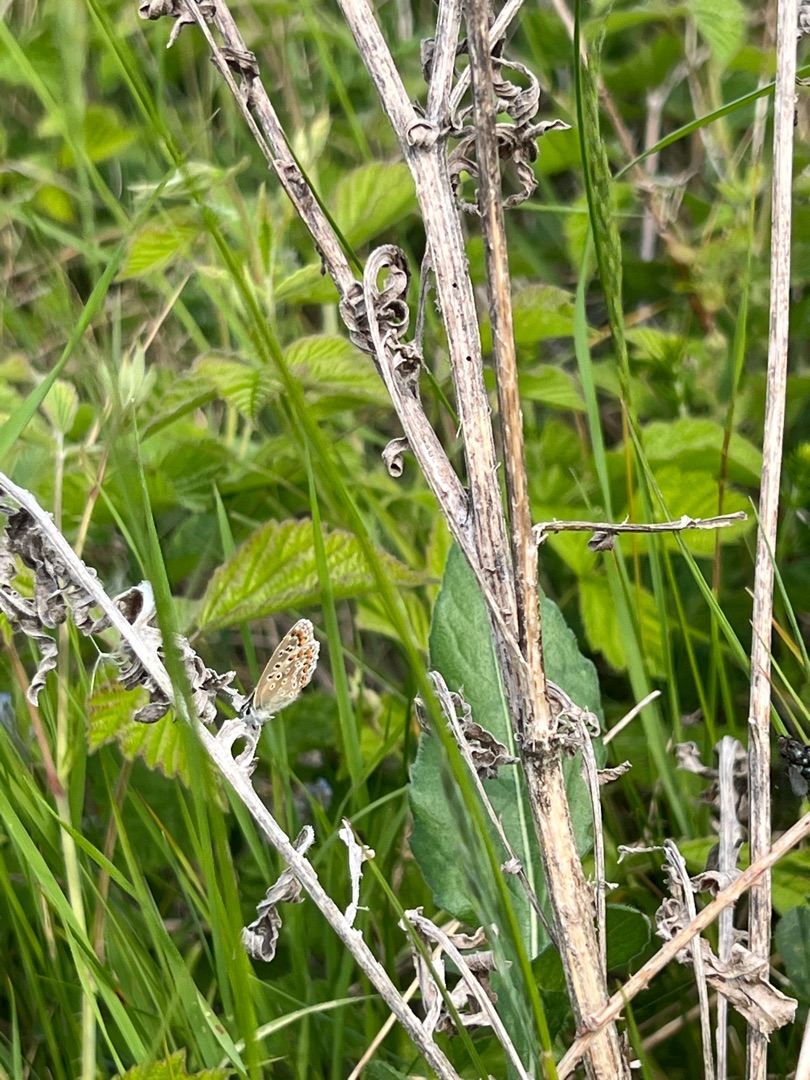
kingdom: Animalia
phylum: Arthropoda
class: Insecta
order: Lepidoptera
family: Lycaenidae
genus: Polyommatus
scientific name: Polyommatus icarus
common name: Almindelig blåfugl
